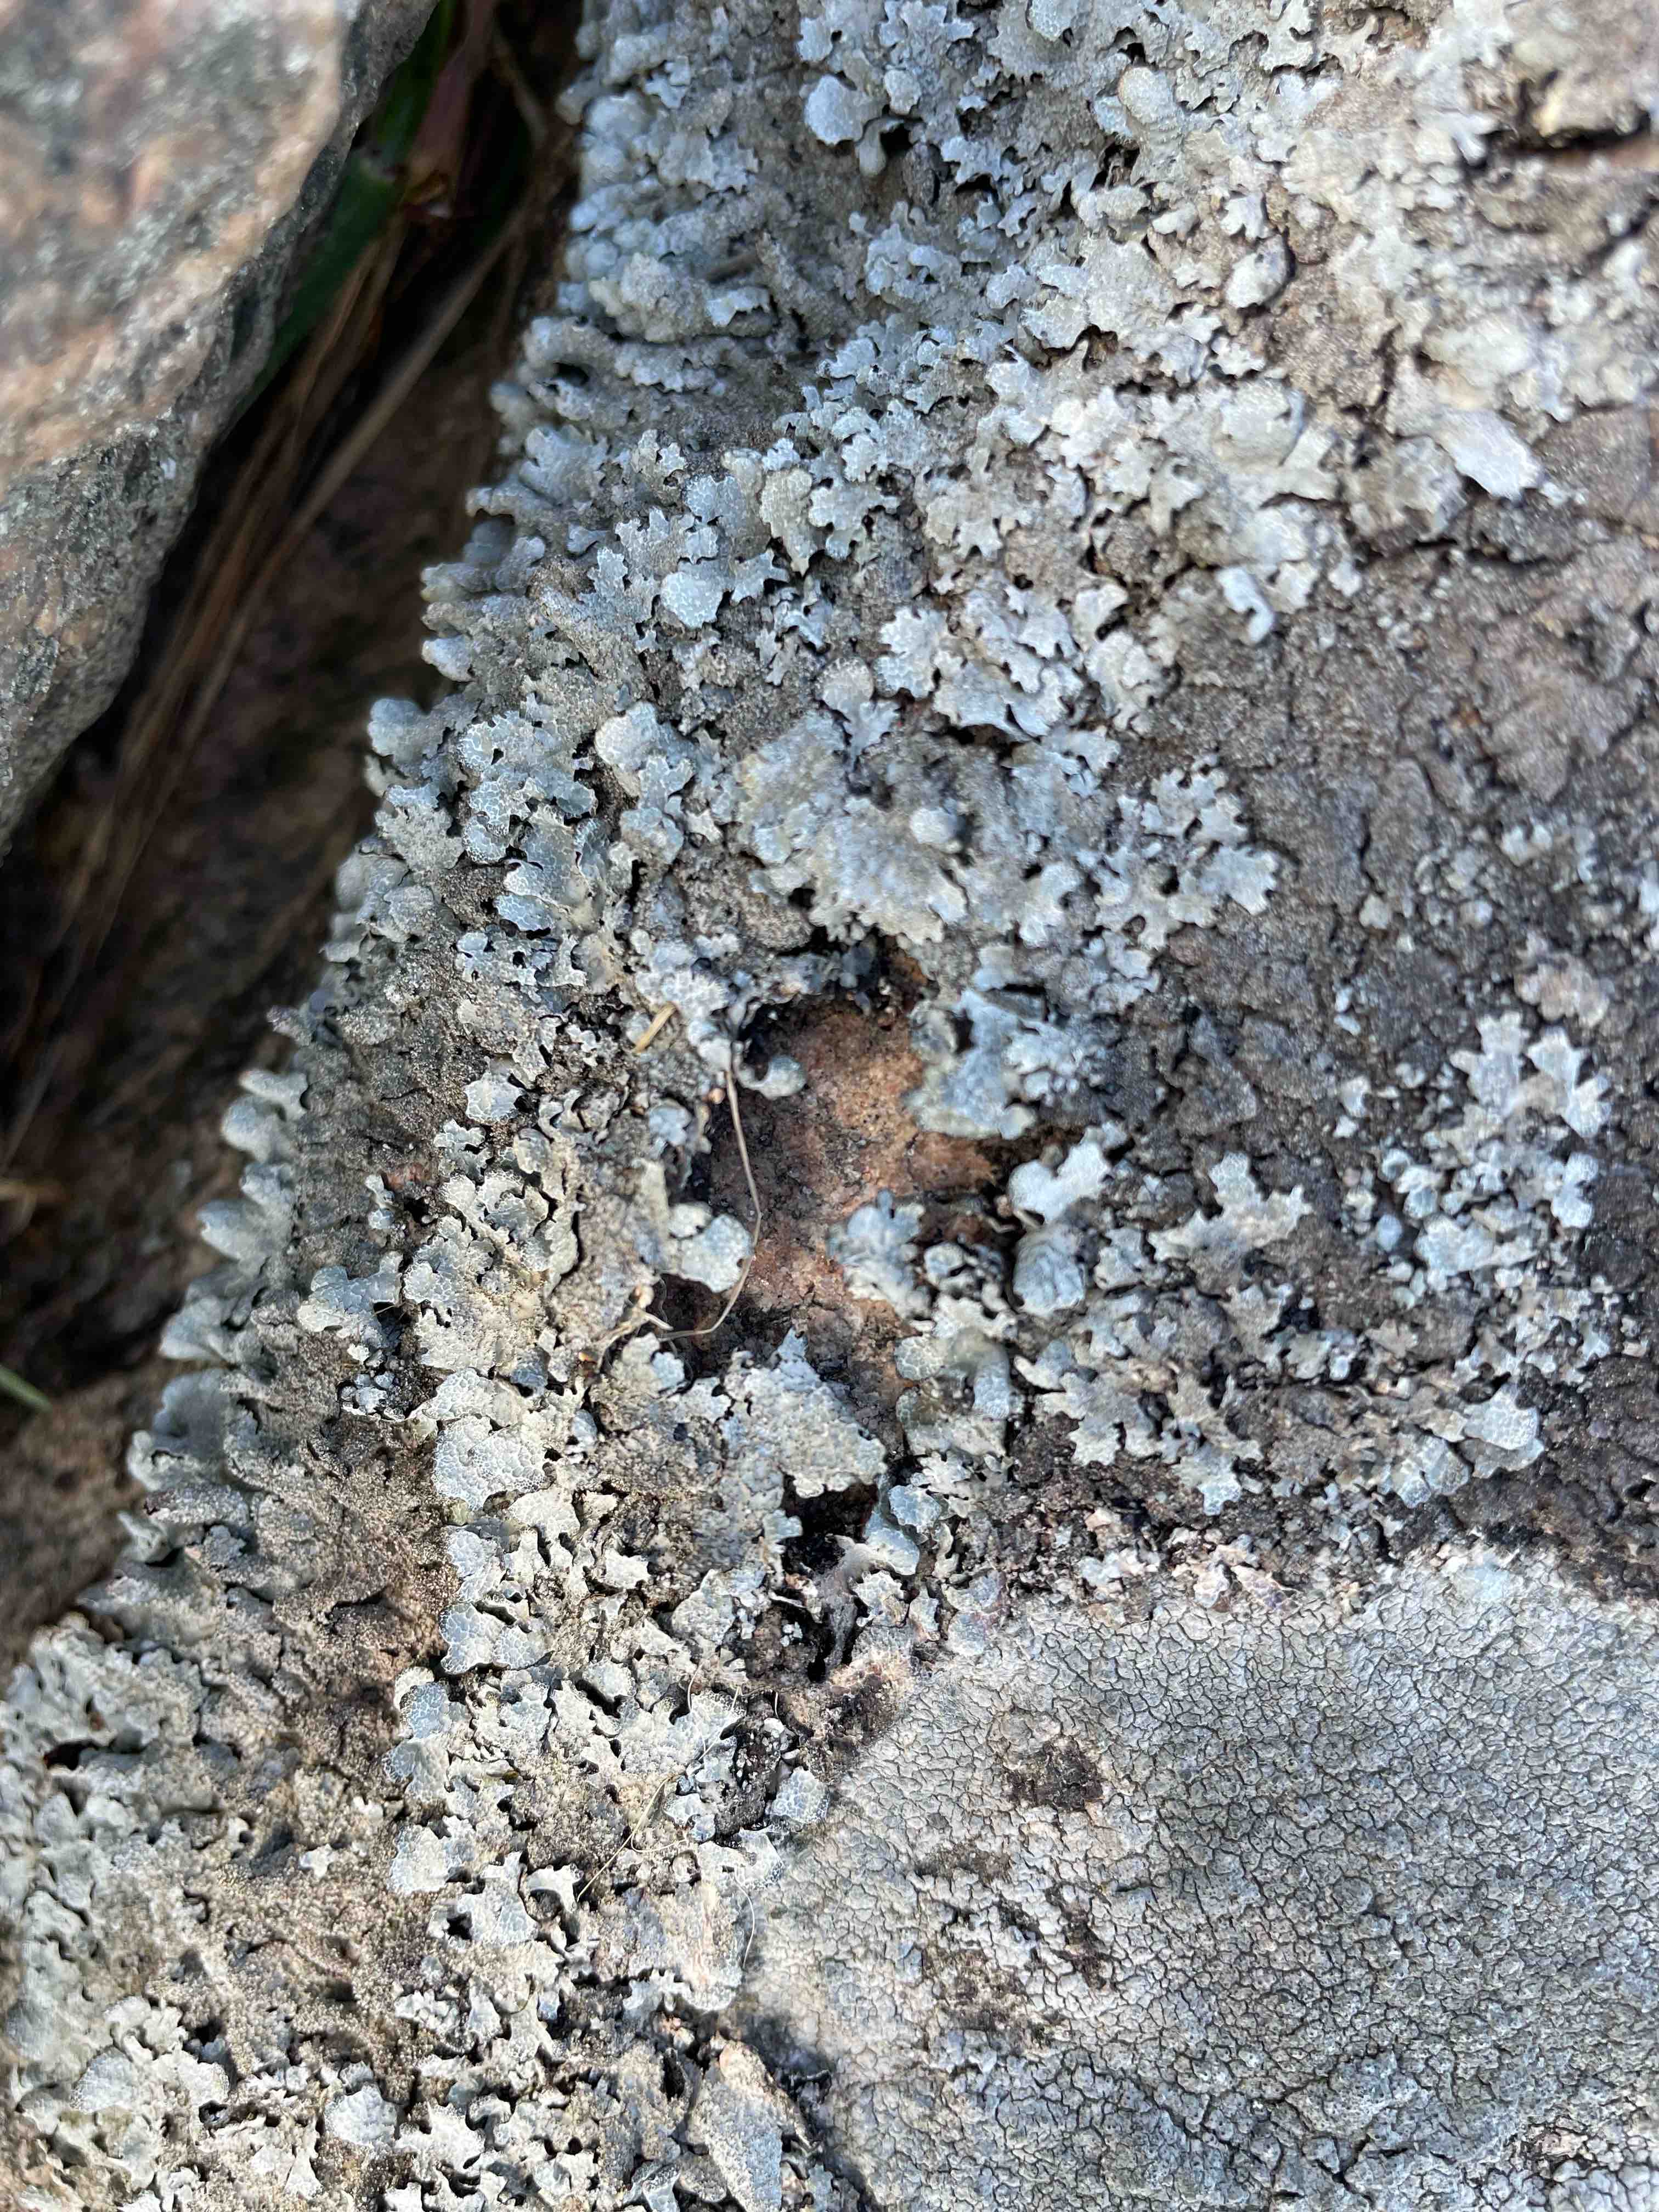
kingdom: Fungi
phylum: Ascomycota
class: Lecanoromycetes
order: Lecanorales
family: Parmeliaceae
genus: Parmelia
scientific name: Parmelia saxatilis
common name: farve-skållav
